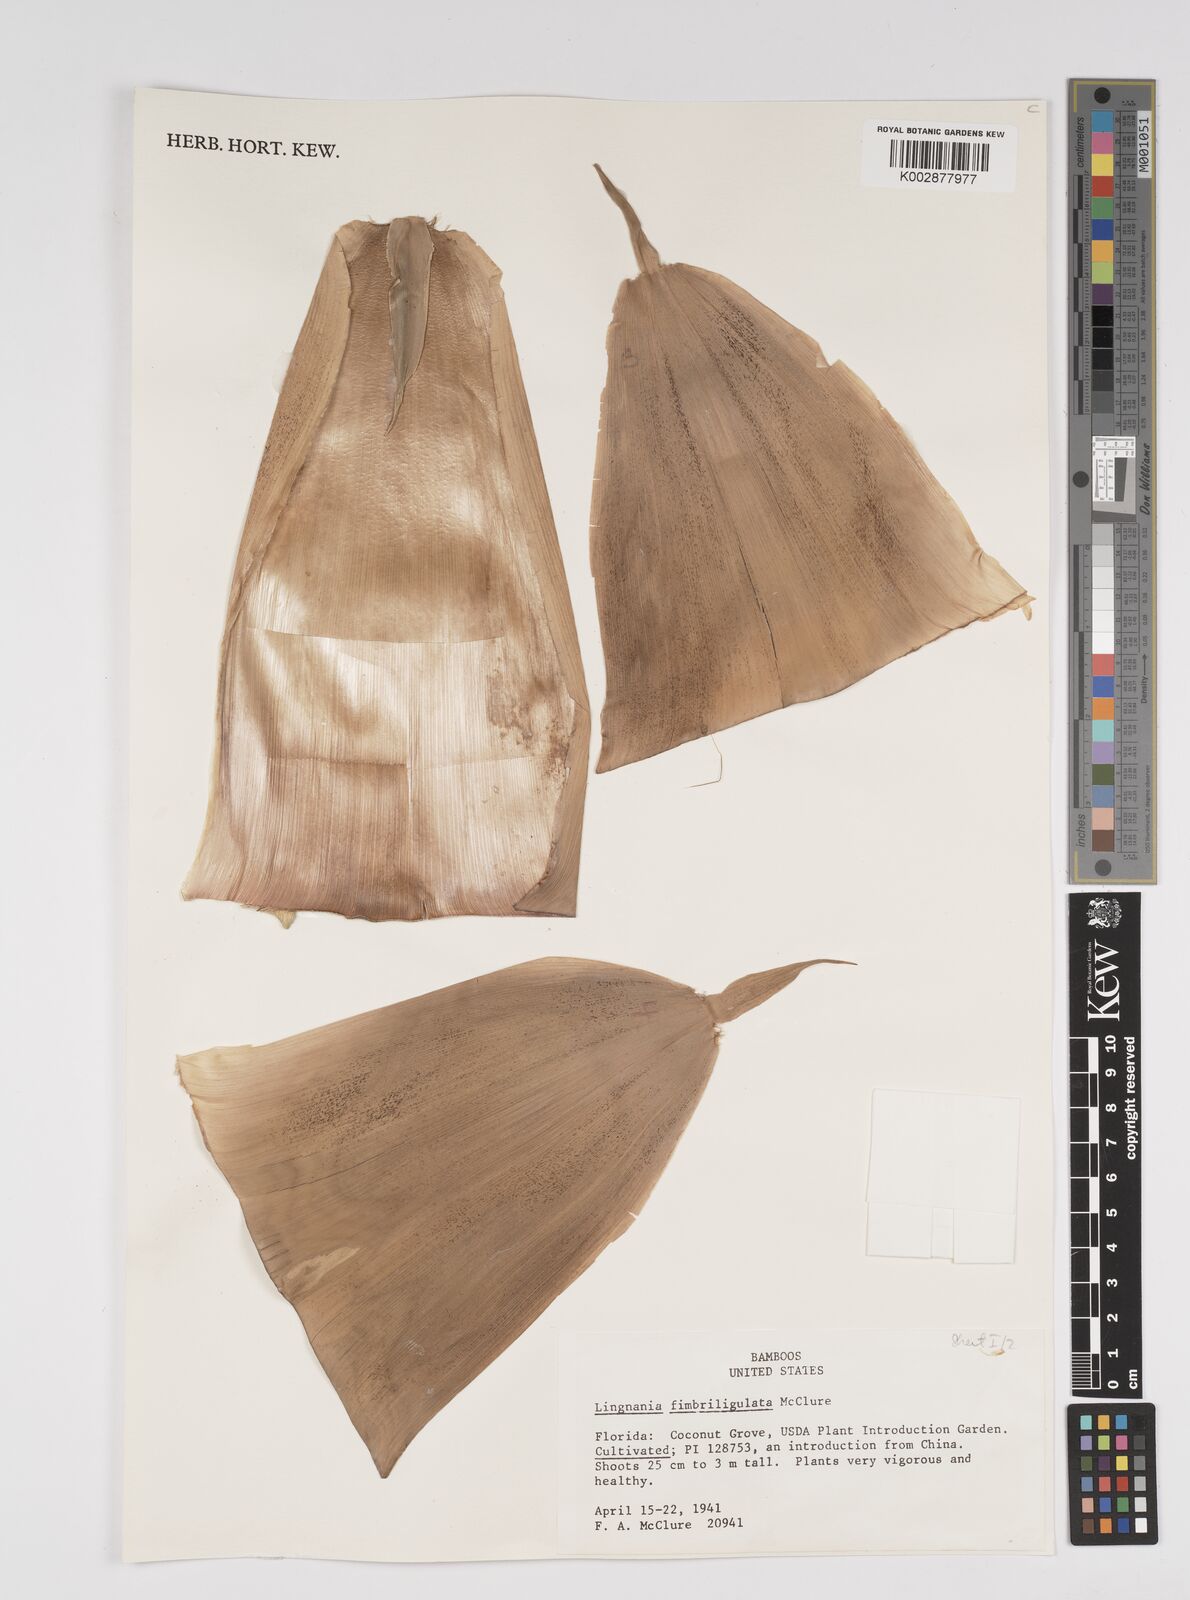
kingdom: Plantae
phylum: Tracheophyta
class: Liliopsida
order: Poales
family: Poaceae
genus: Bambusa
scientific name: Bambusa fimbriligulata
